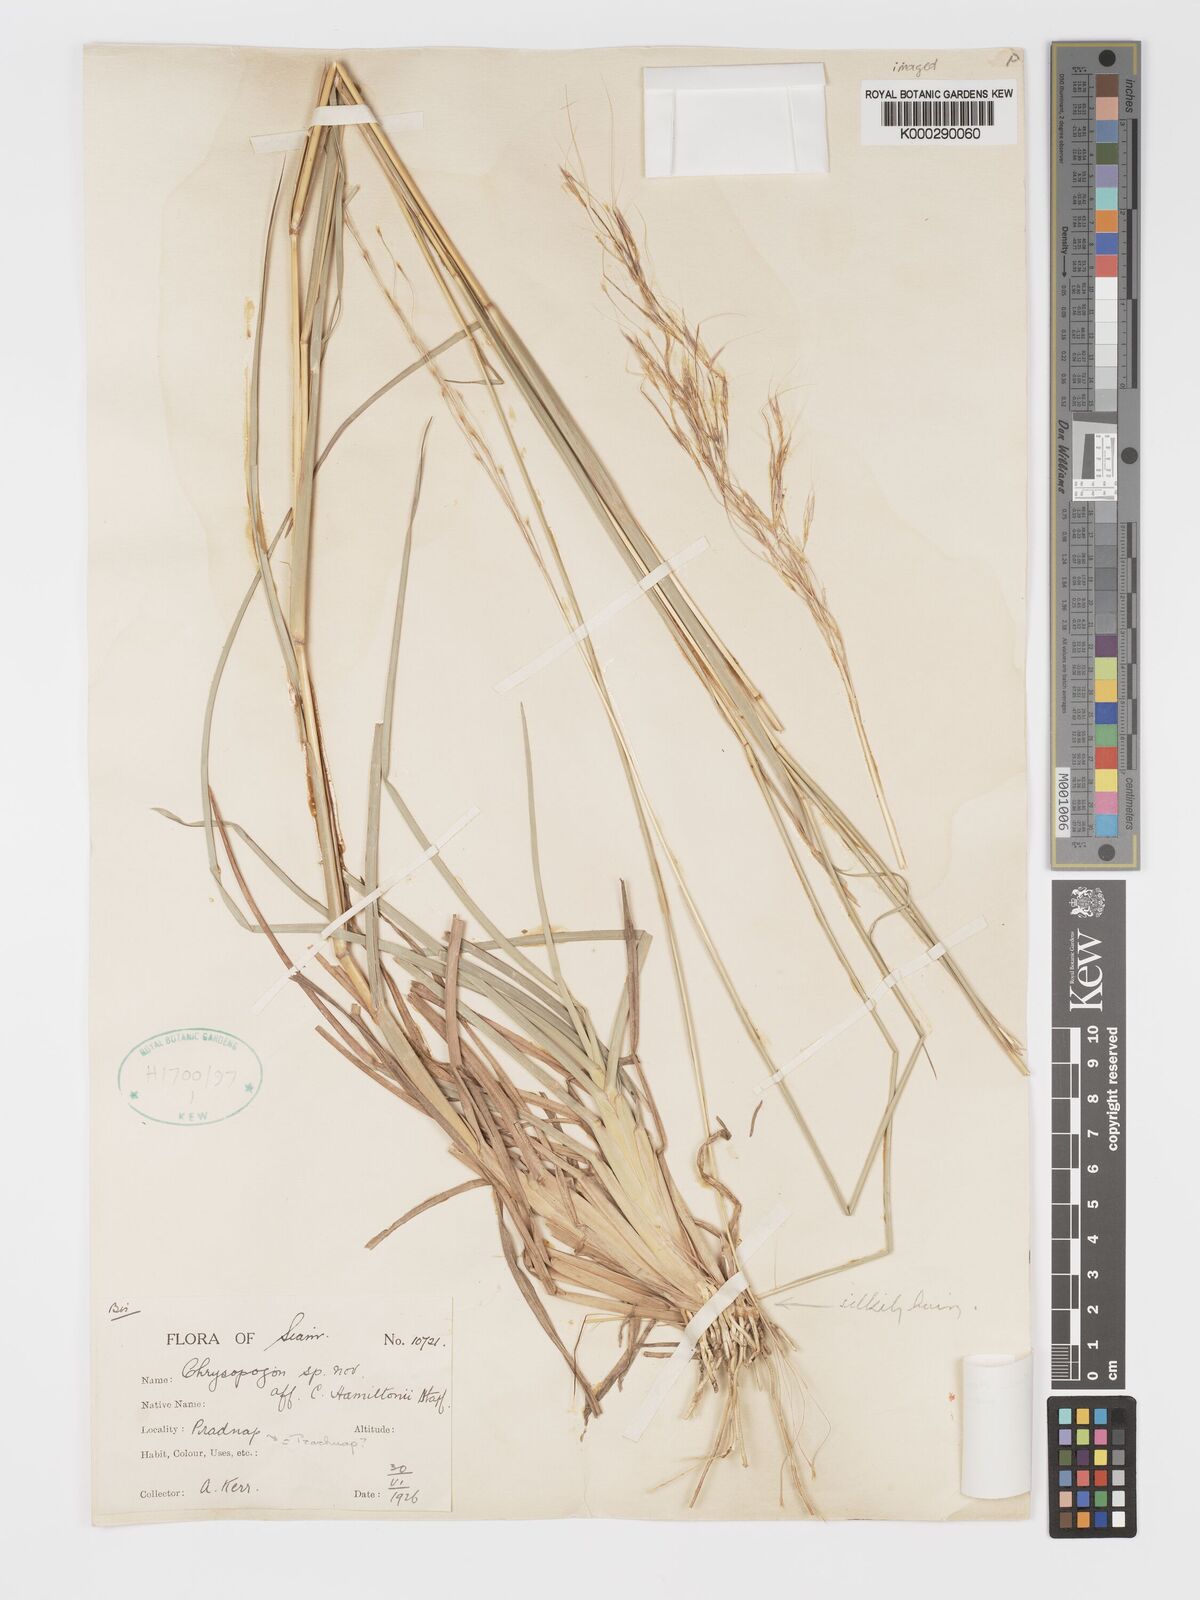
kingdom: Plantae
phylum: Tracheophyta
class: Liliopsida
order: Poales
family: Poaceae
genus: Chrysopogon
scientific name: Chrysopogon orientalis
